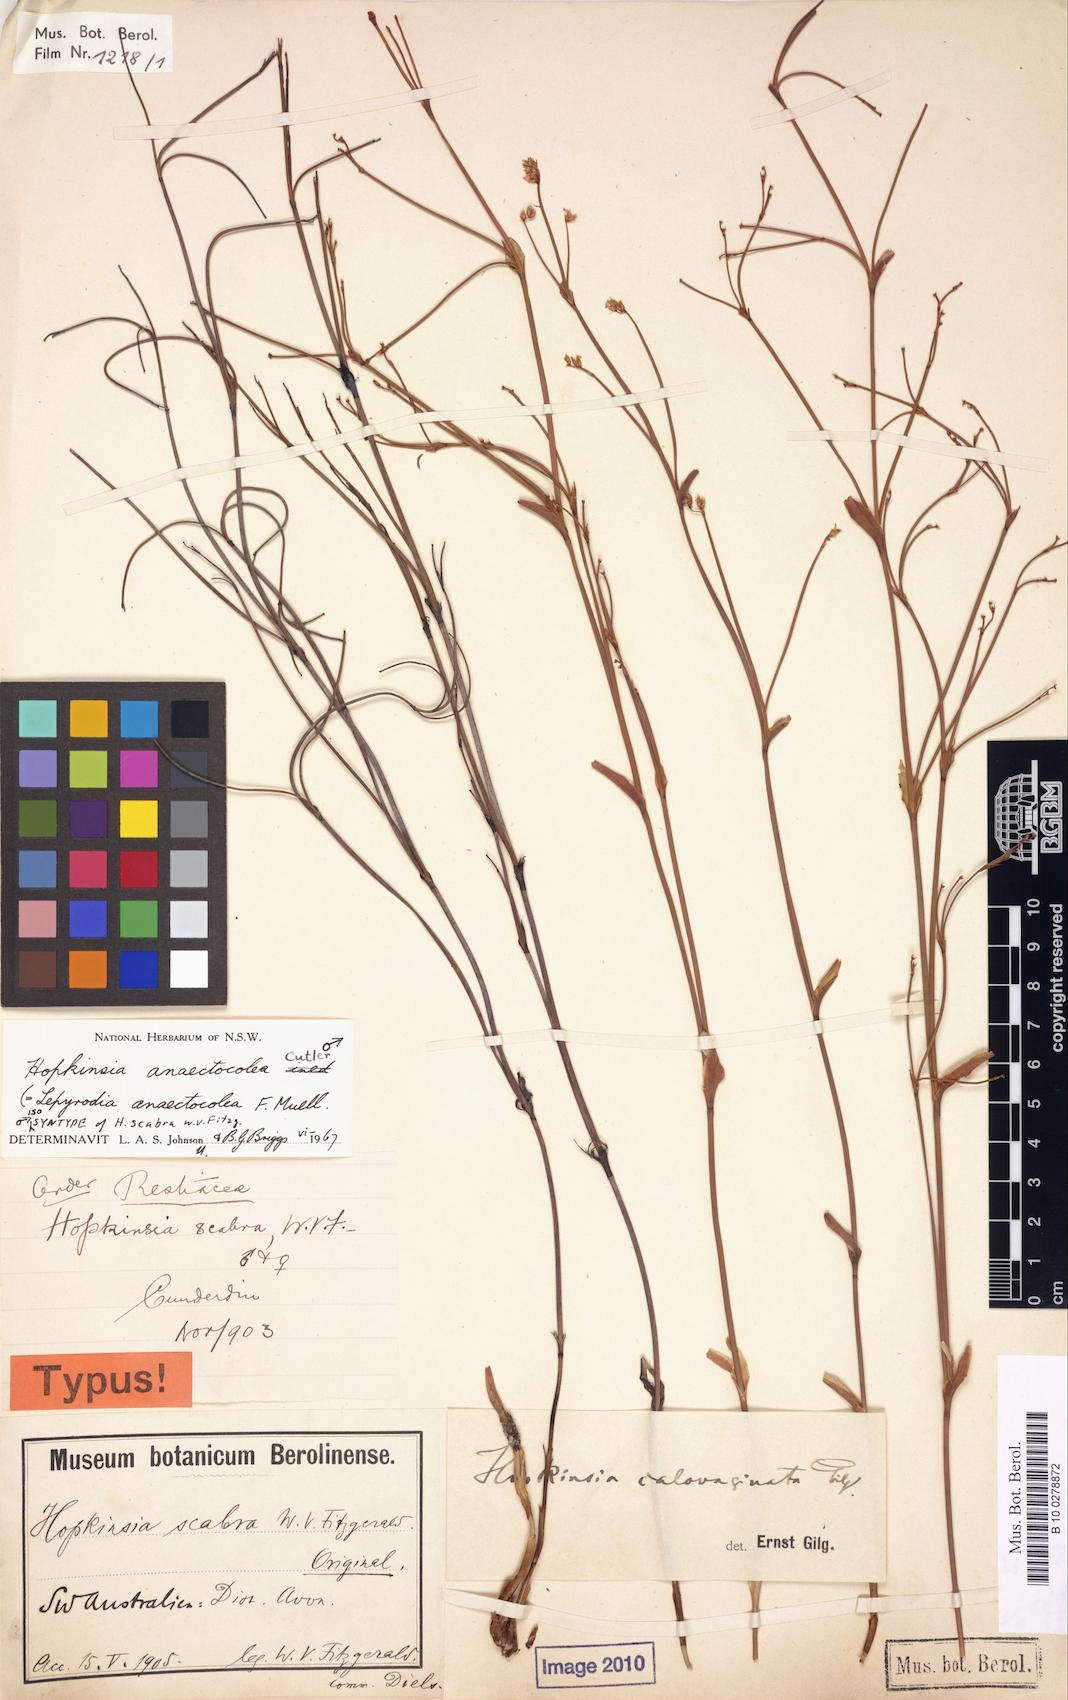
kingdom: Plantae
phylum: Tracheophyta
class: Liliopsida
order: Poales
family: Restionaceae
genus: Hopkinsia
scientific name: Hopkinsia anoectocolea
